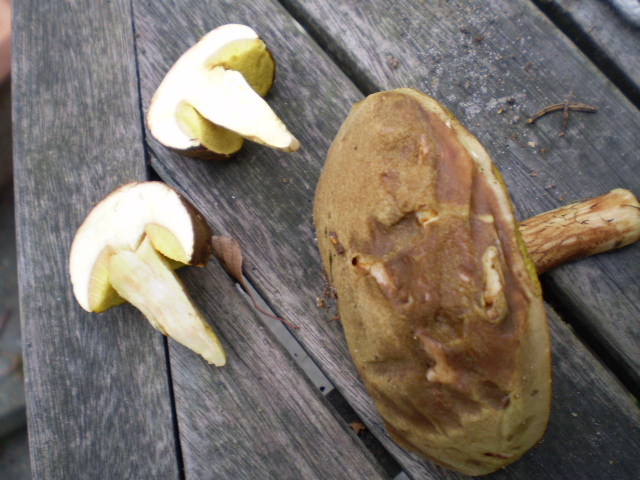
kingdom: Fungi
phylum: Basidiomycota
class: Agaricomycetes
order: Boletales
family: Boletaceae
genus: Xerocomus
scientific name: Xerocomus ferrugineus
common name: vaskeskinds-rørhat
